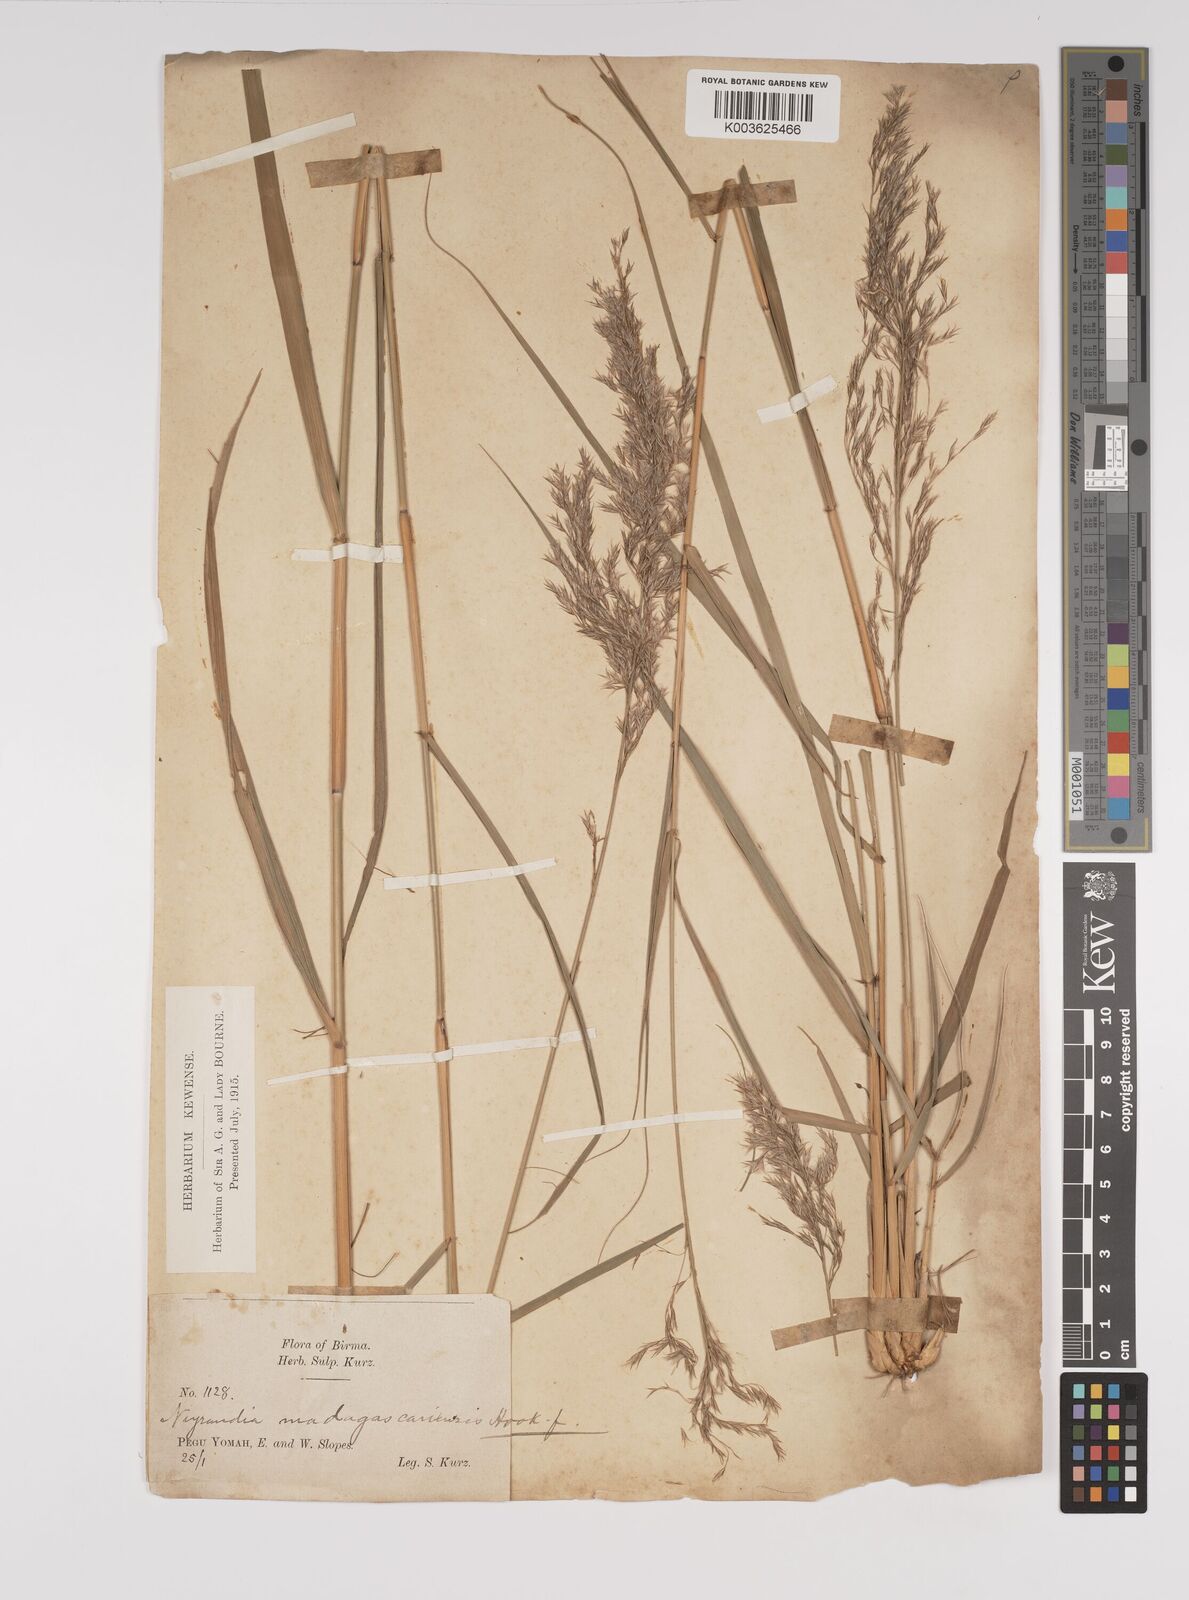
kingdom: Plantae
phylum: Tracheophyta
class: Liliopsida
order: Poales
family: Poaceae
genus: Neyraudia
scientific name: Neyraudia reynaudiana
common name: Silkreed
